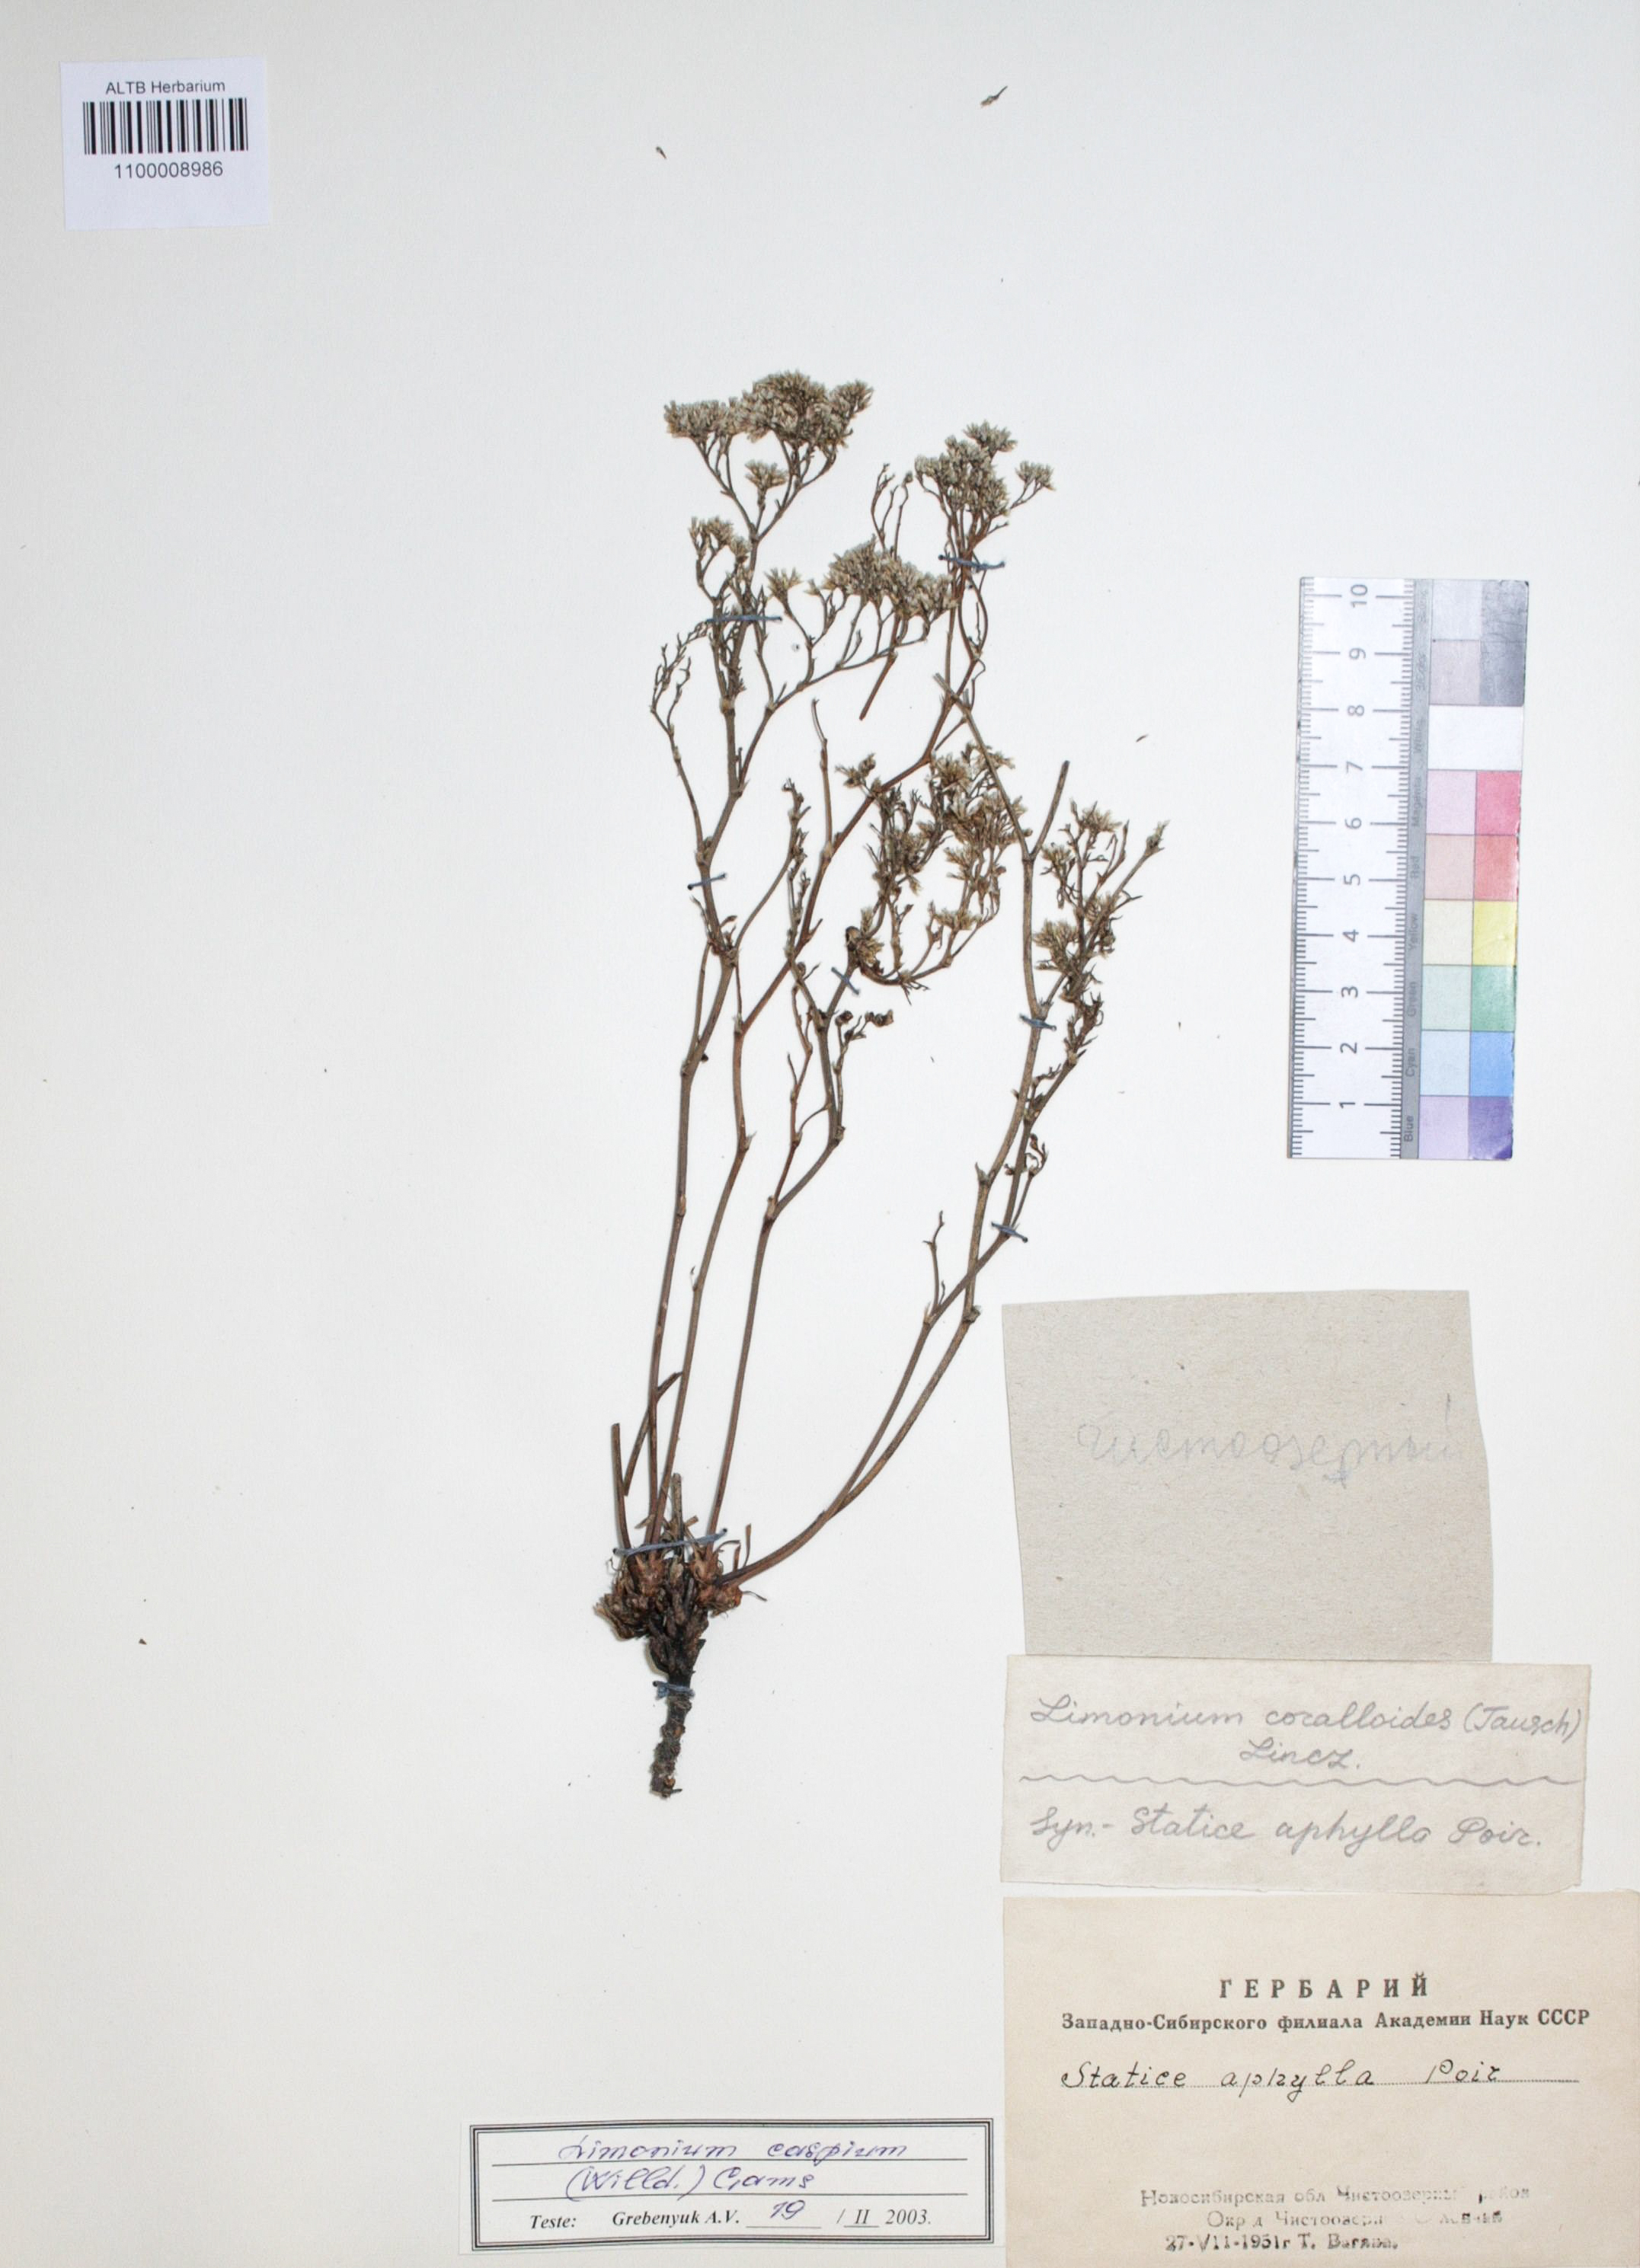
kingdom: Plantae
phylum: Tracheophyta
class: Magnoliopsida
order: Caryophyllales
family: Plumbaginaceae
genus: Limonium
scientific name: Limonium coralloides
